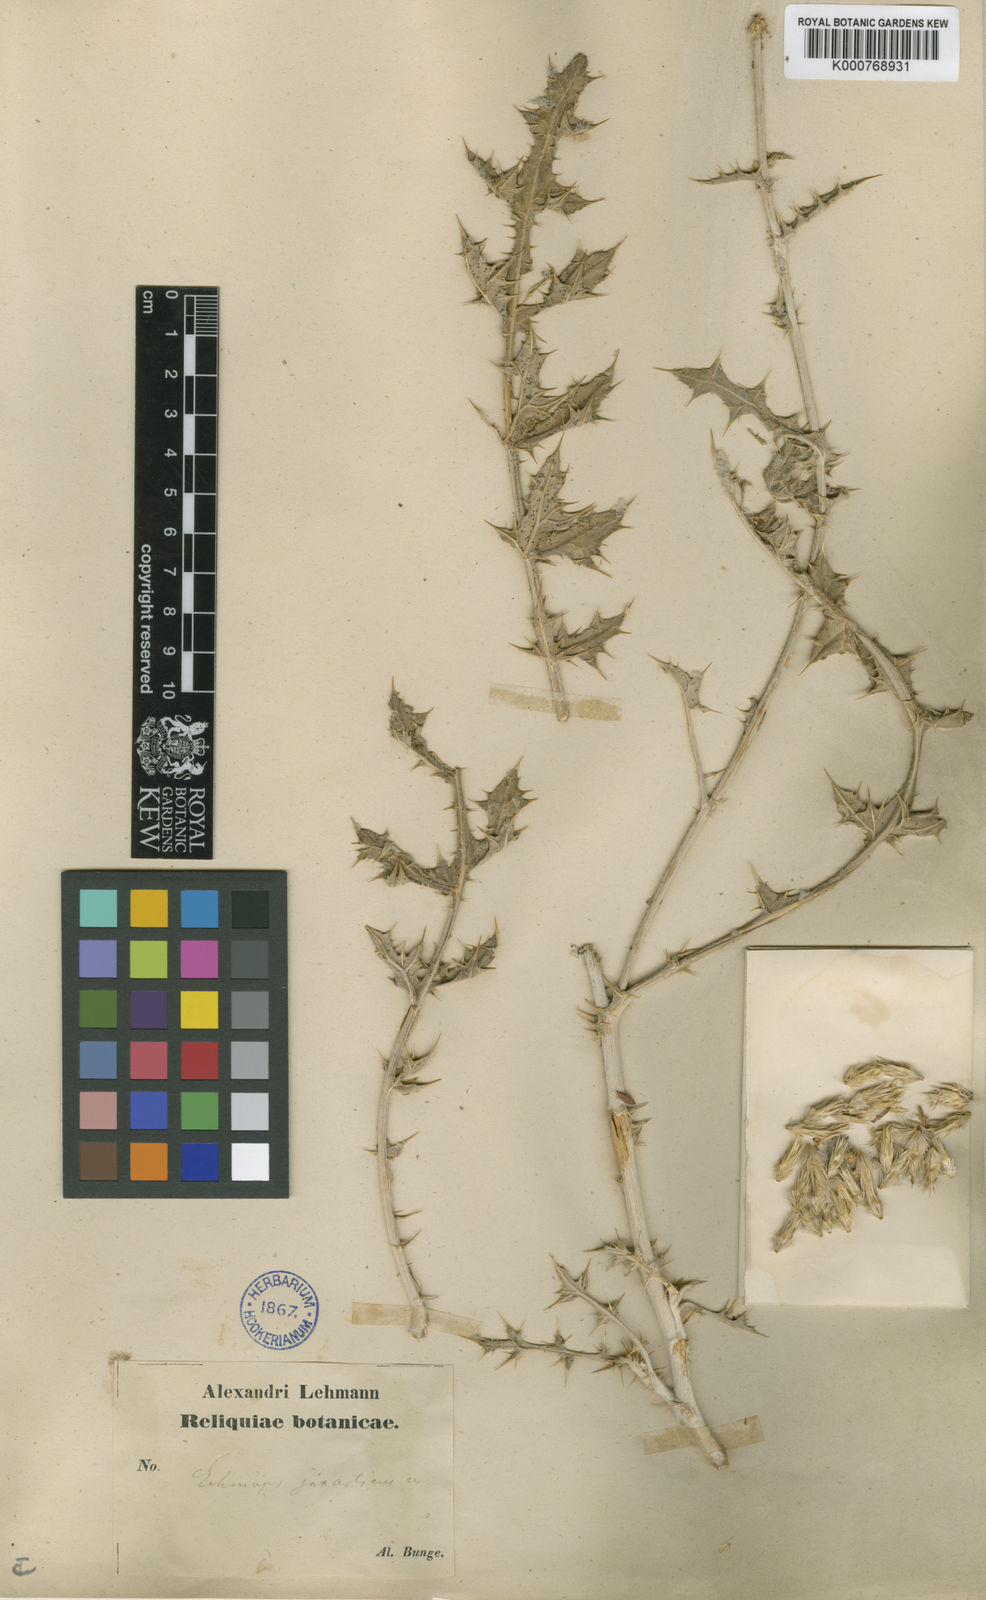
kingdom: Plantae
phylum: Tracheophyta
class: Magnoliopsida
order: Asterales
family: Asteraceae
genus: Echinops
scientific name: Echinops jaxarticus
